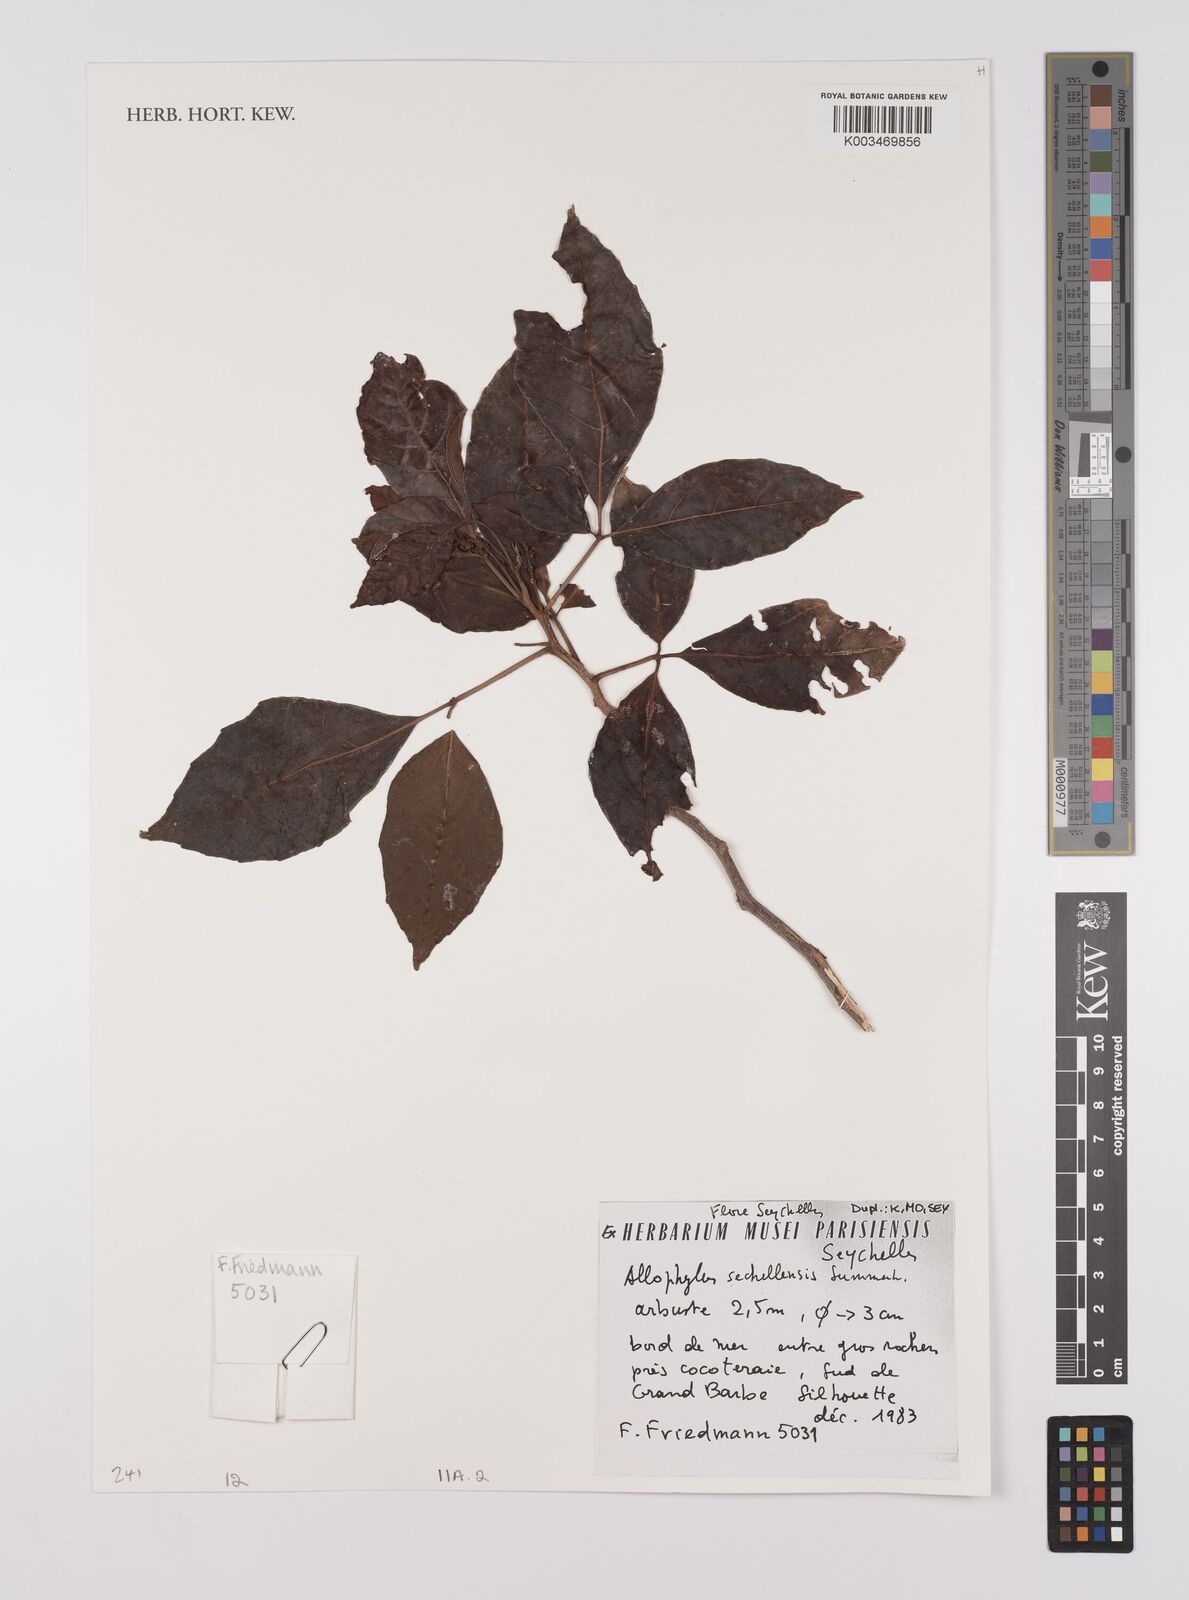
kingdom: Plantae
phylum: Tracheophyta
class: Magnoliopsida
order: Sapindales
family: Sapindaceae
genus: Allophylus
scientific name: Allophylus sechellensis
